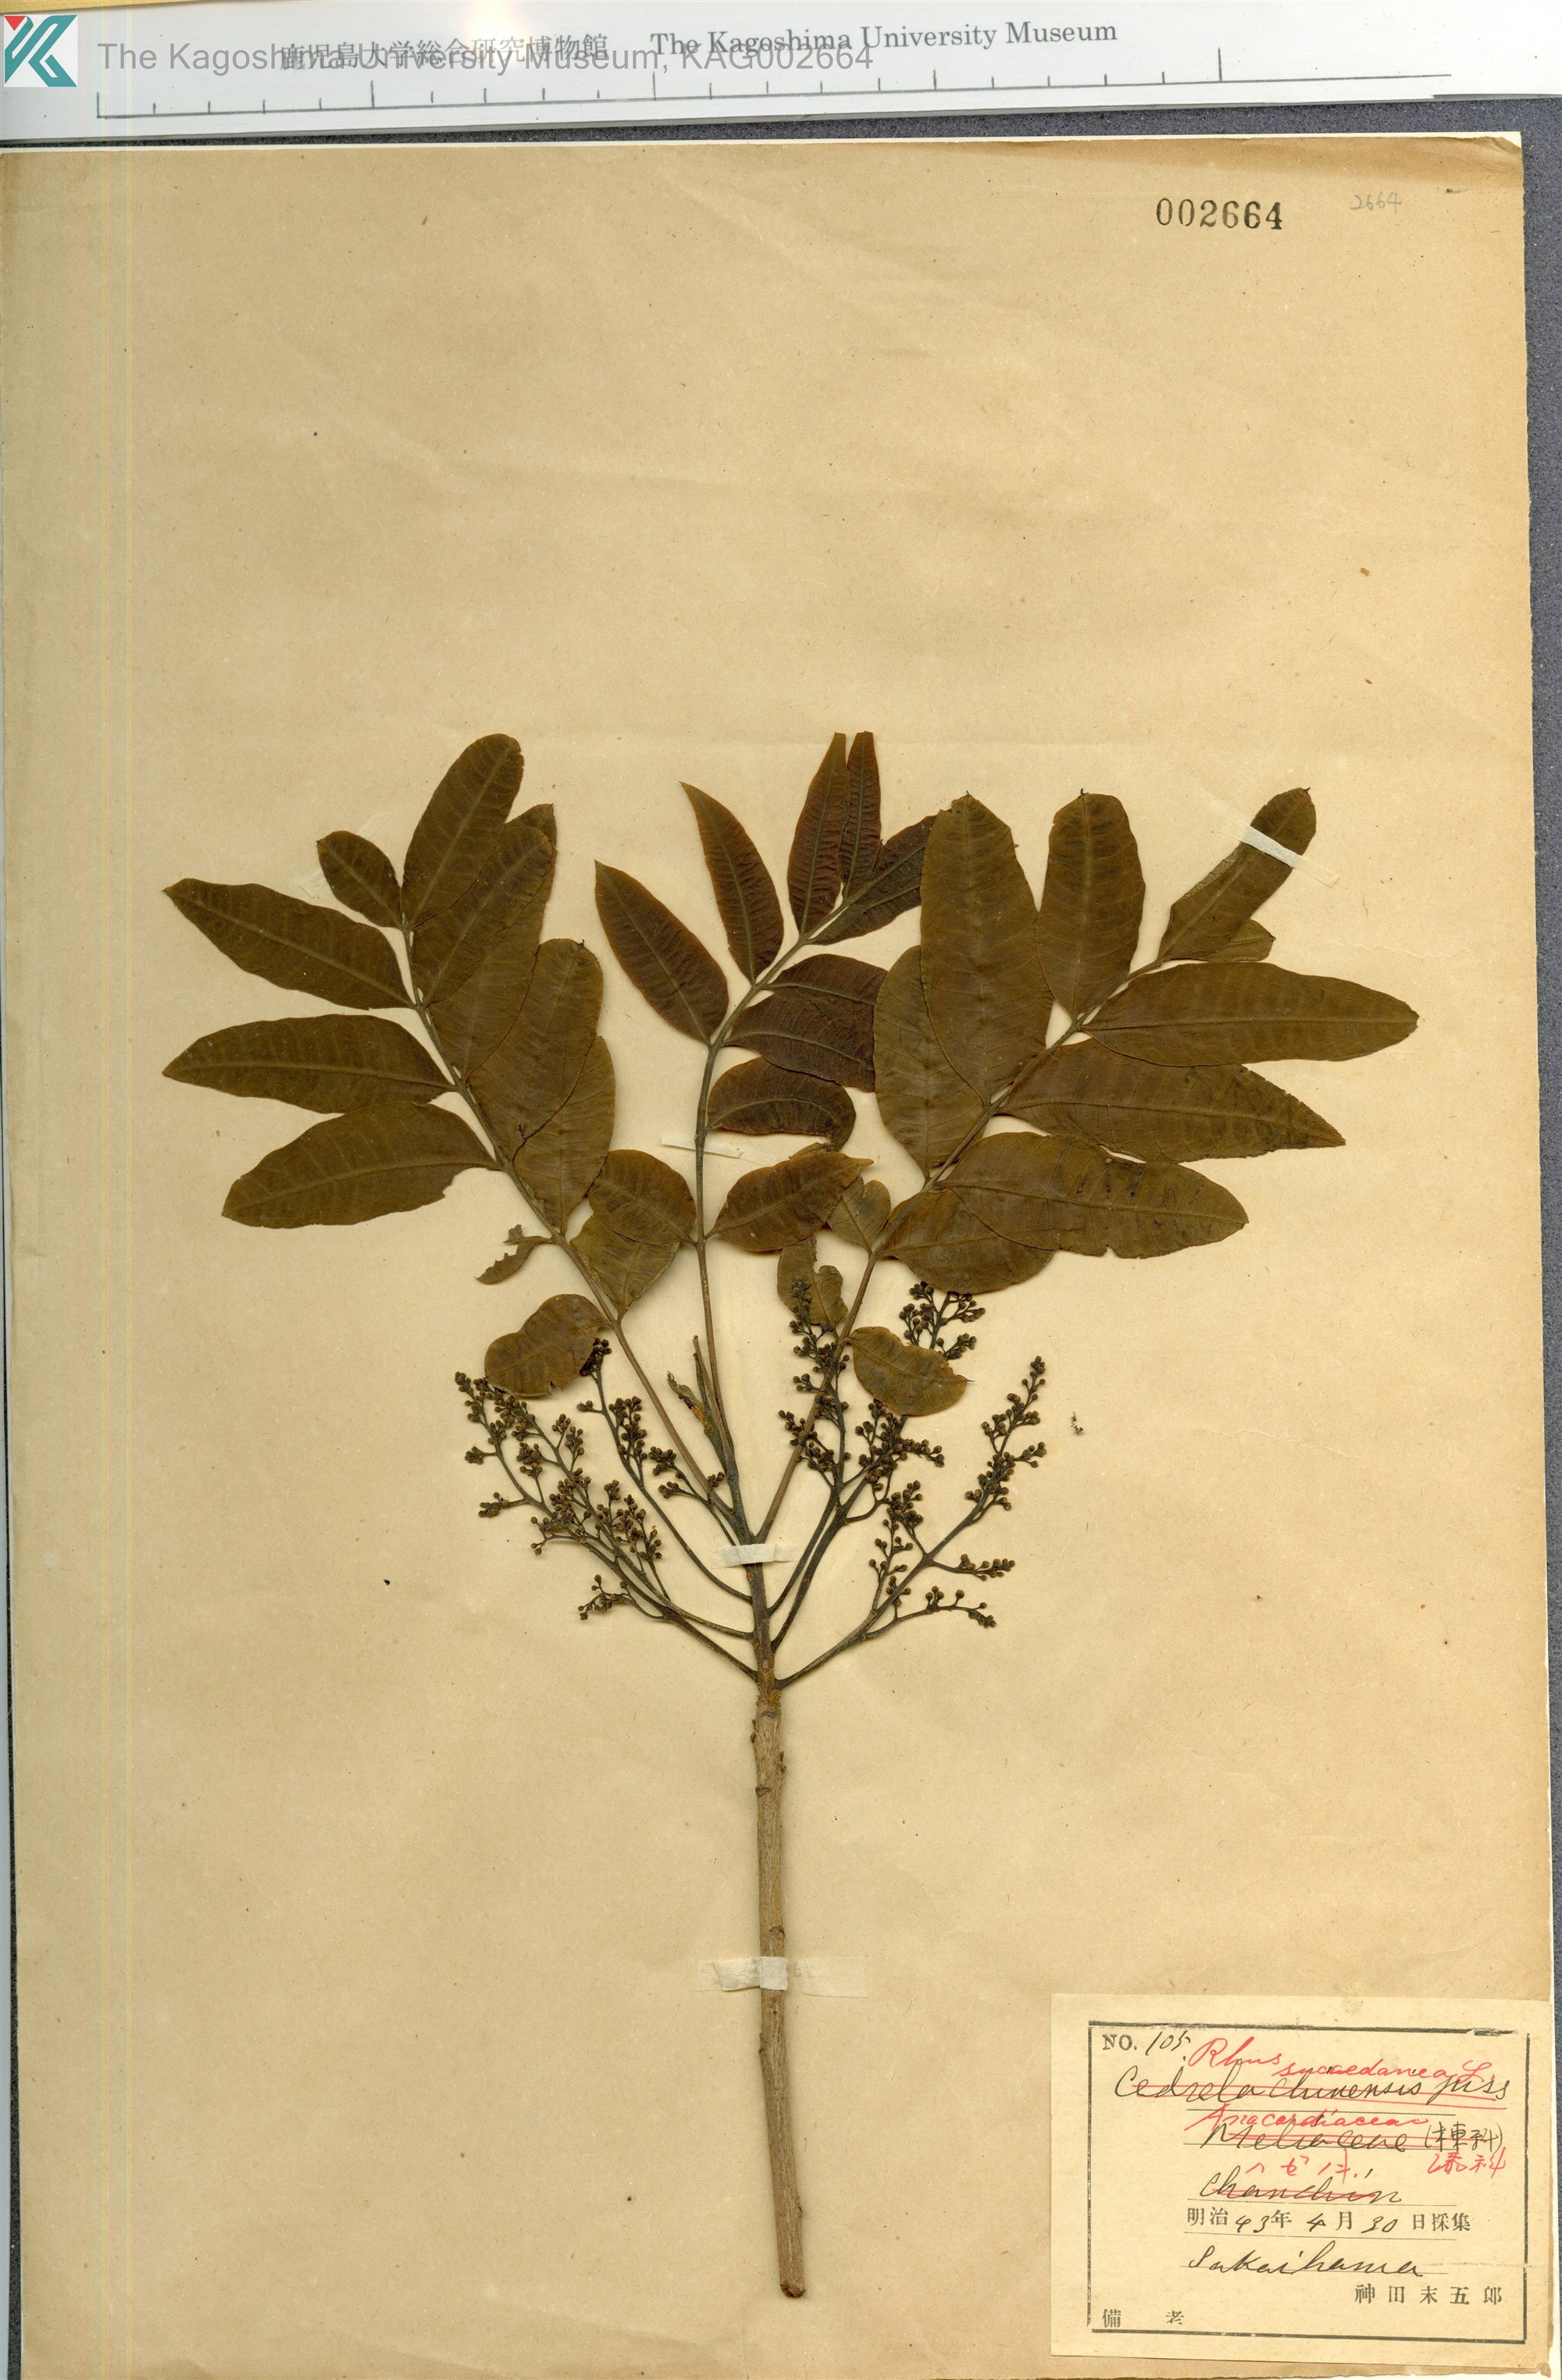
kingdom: Plantae
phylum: Tracheophyta
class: Magnoliopsida
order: Sapindales
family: Anacardiaceae
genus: Toxicodendron
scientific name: Toxicodendron succedaneum
